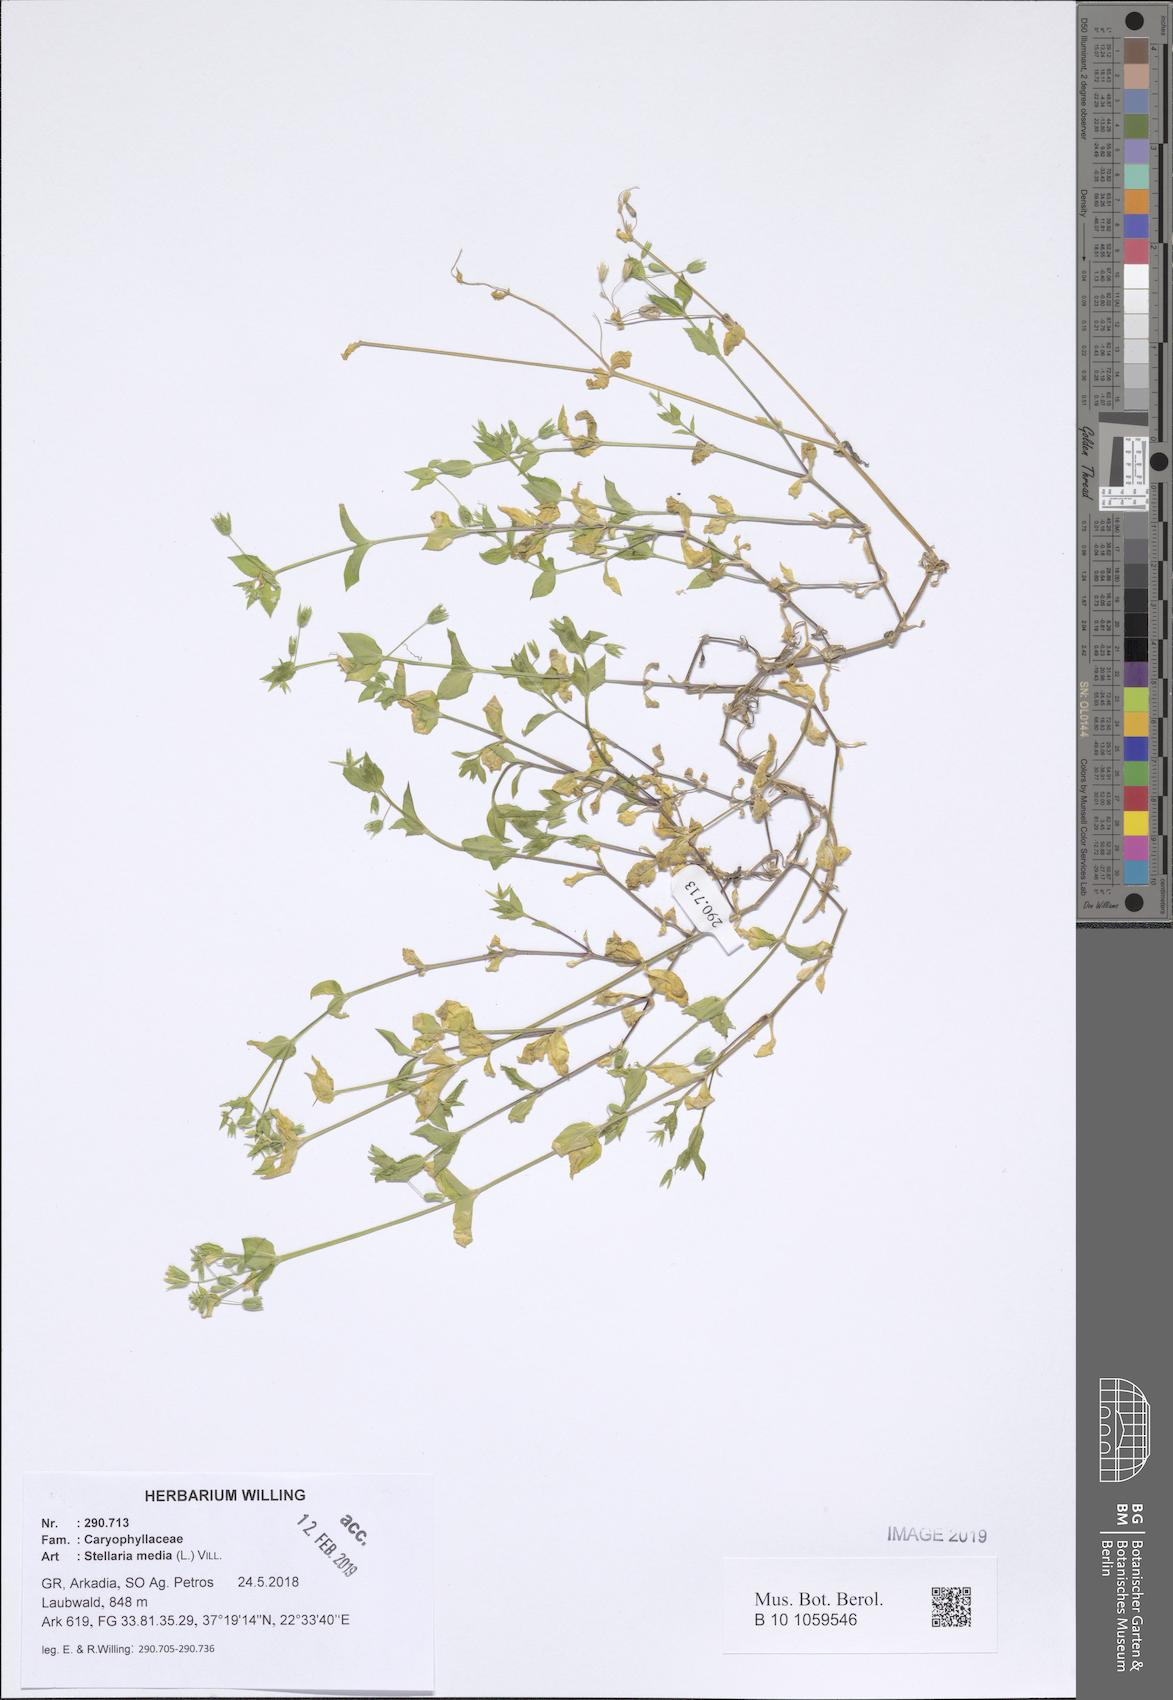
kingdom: Plantae
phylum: Tracheophyta
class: Magnoliopsida
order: Caryophyllales
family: Caryophyllaceae
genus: Stellaria
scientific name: Stellaria media
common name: Common chickweed
